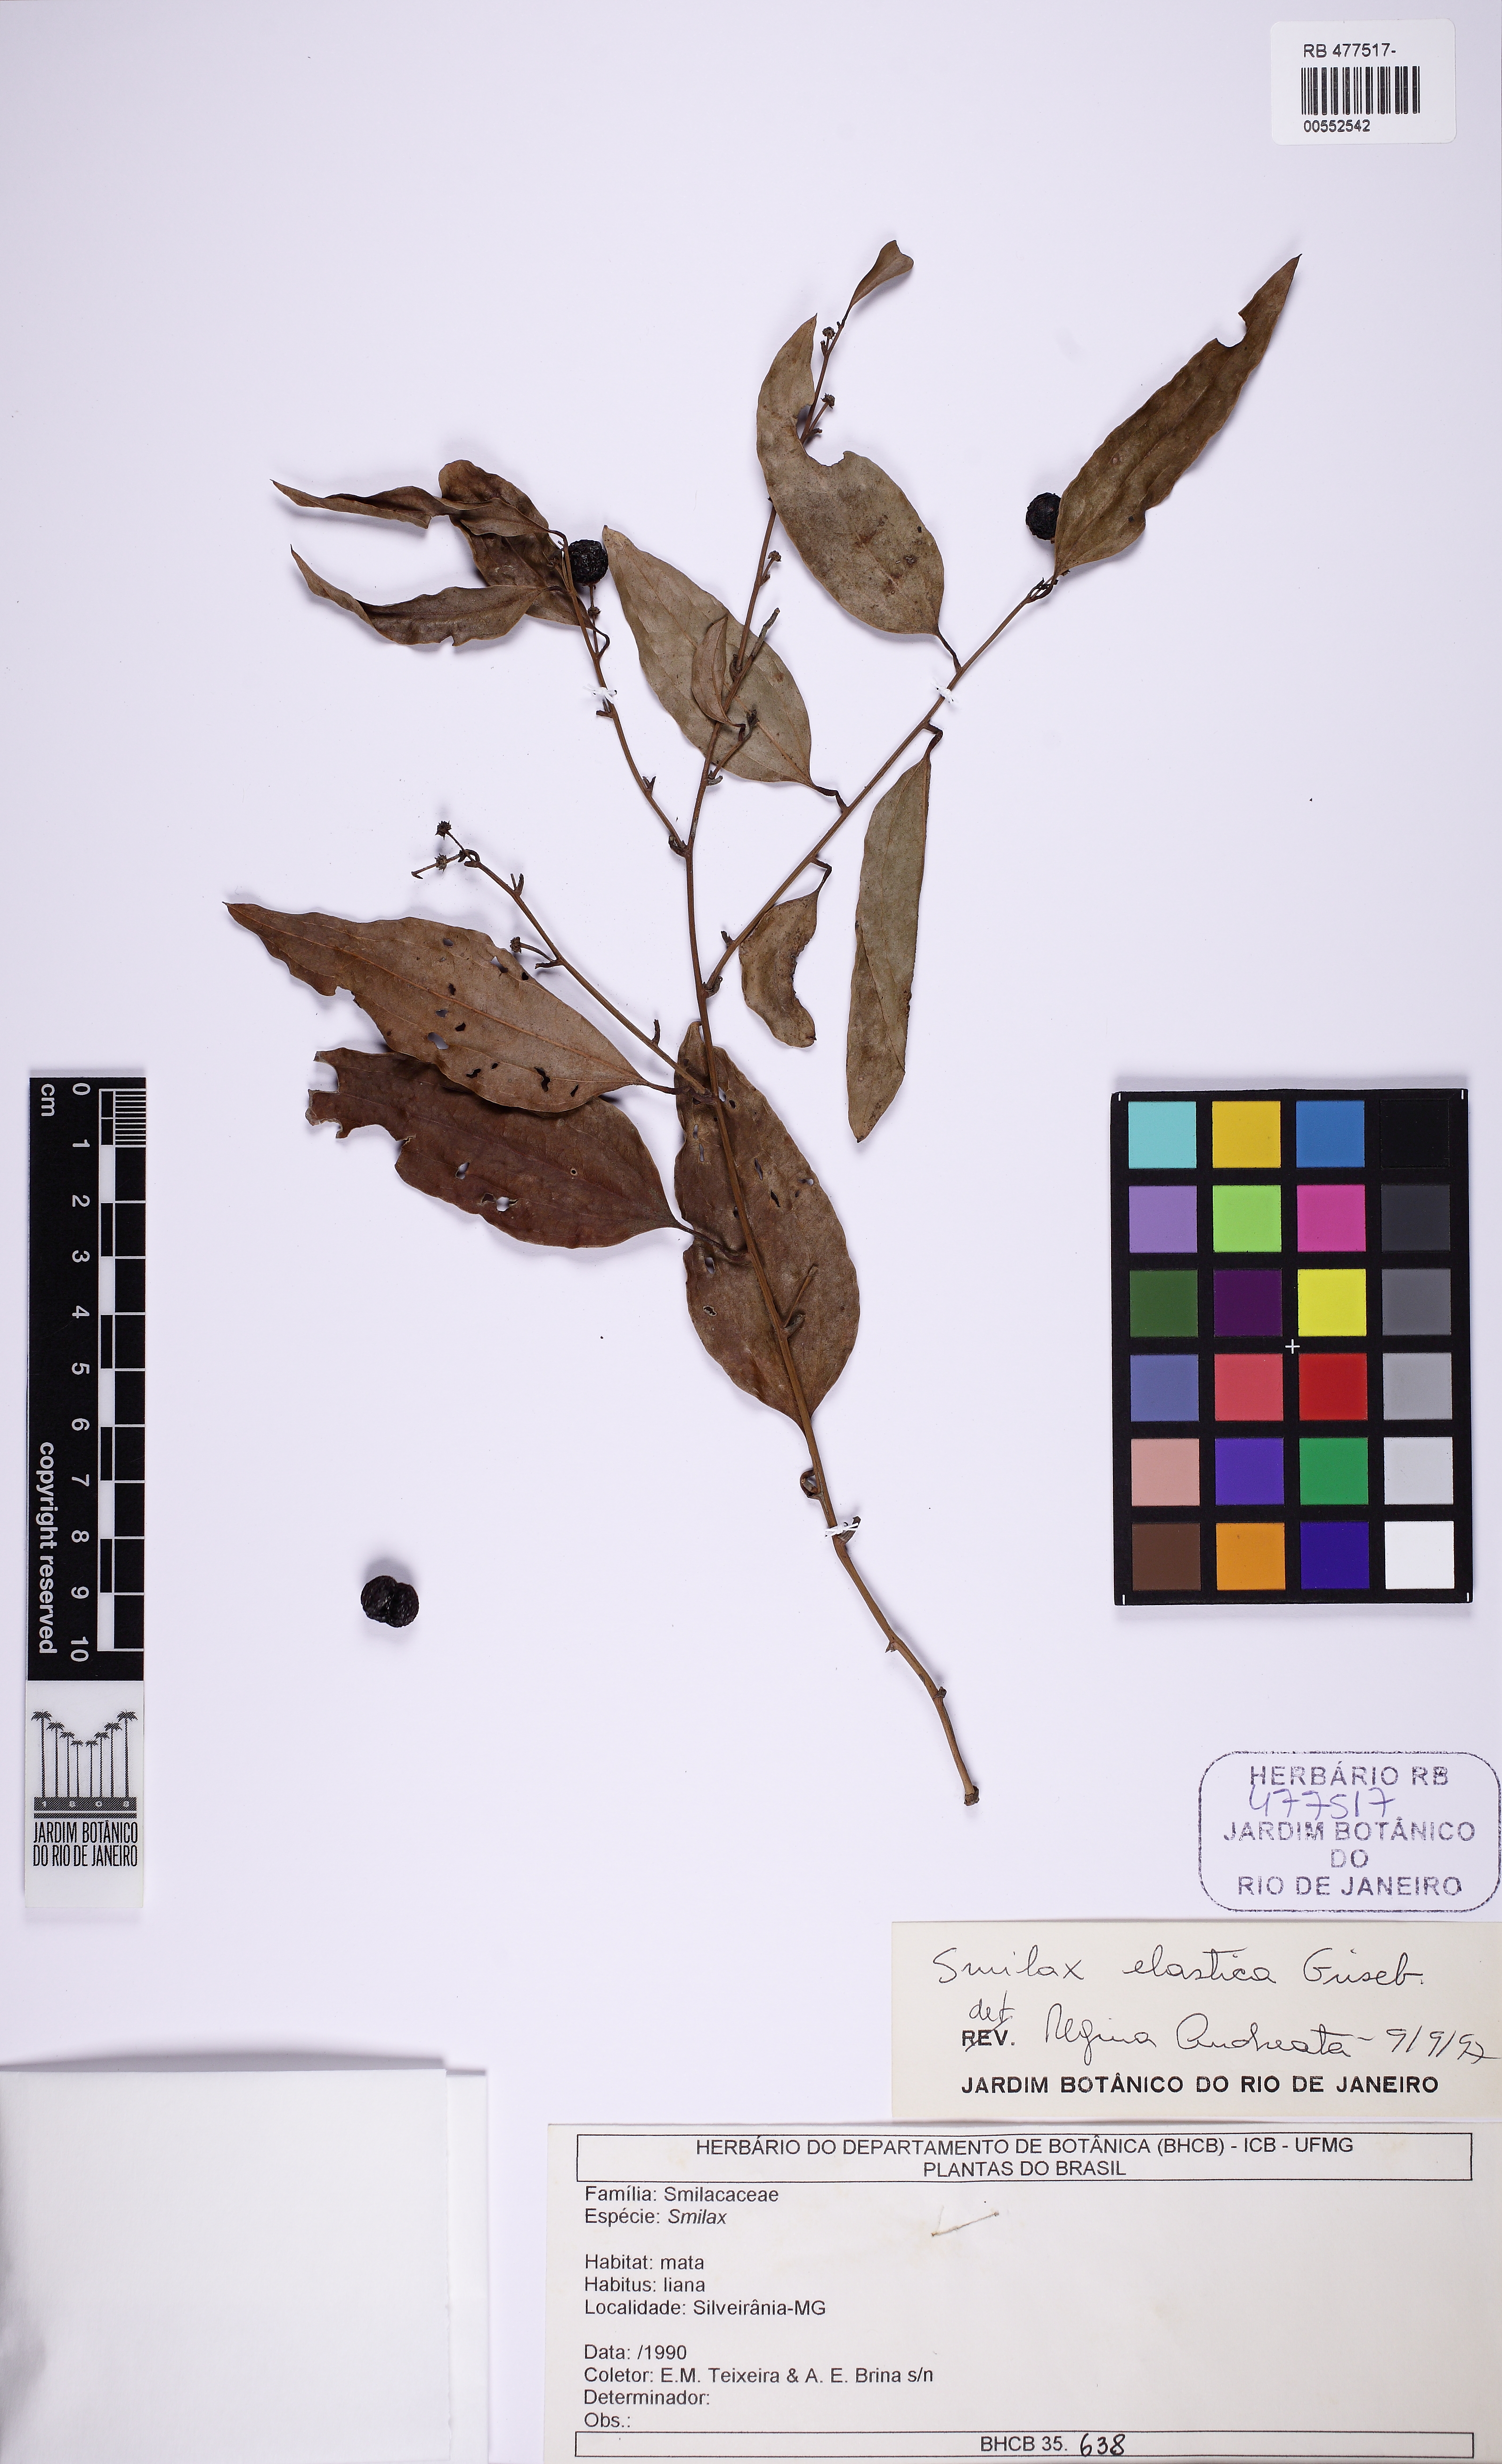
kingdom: Plantae
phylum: Tracheophyta
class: Liliopsida
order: Liliales
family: Smilacaceae
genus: Smilax
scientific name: Smilax elastica
